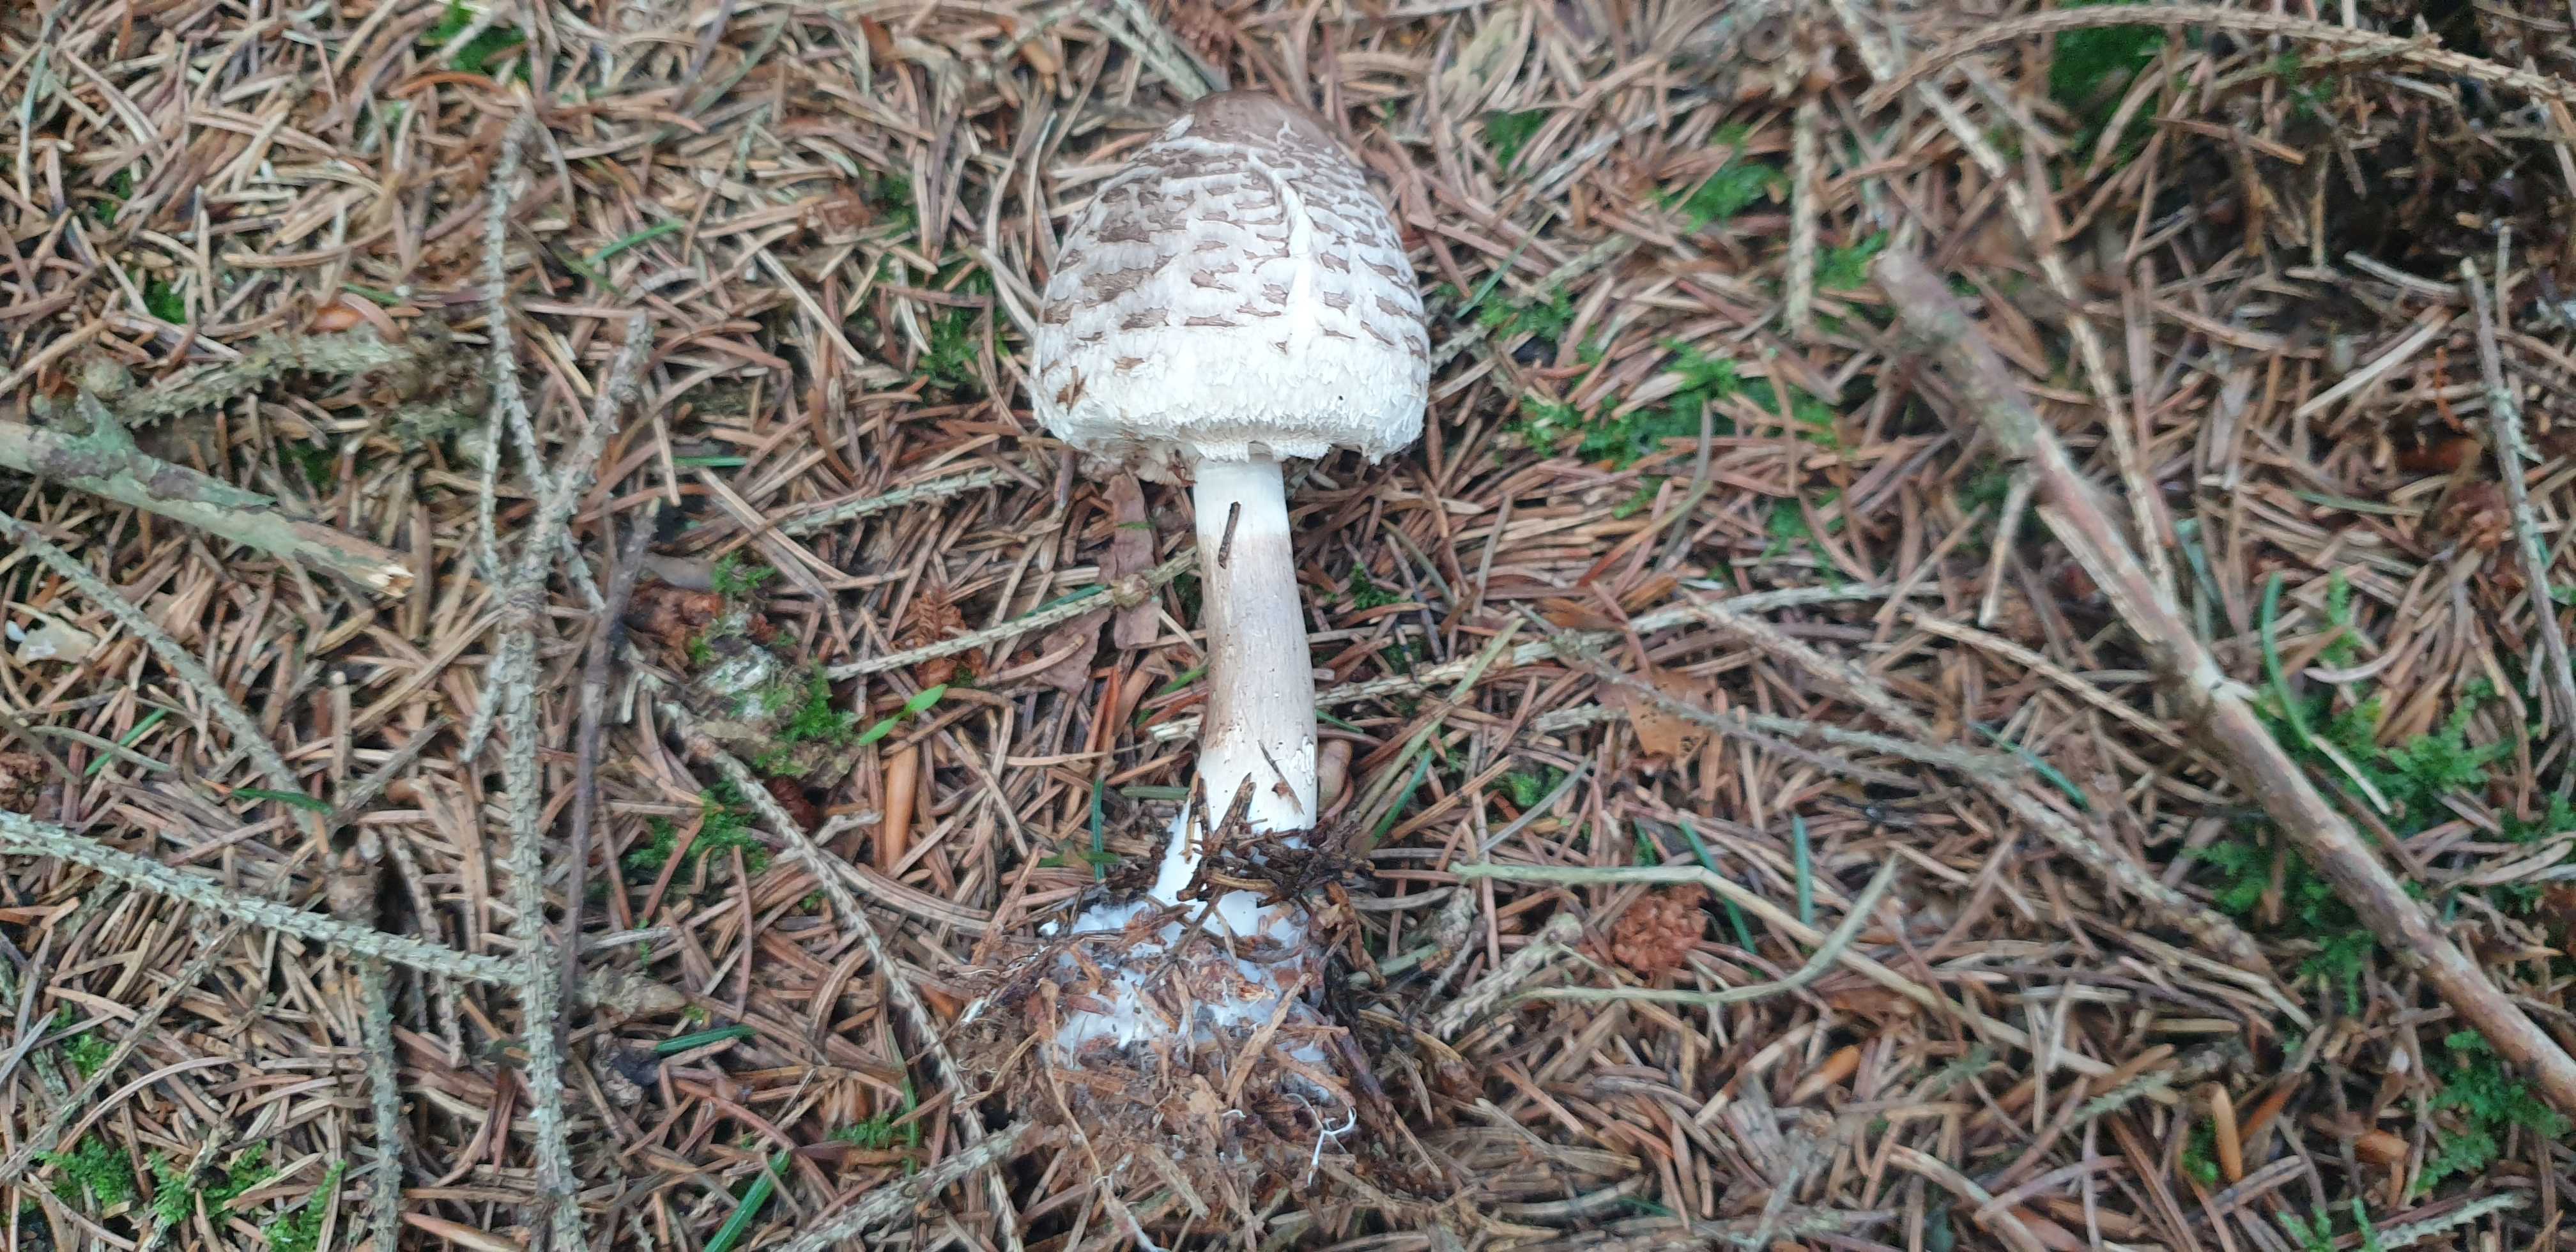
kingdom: Fungi
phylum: Basidiomycota
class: Agaricomycetes
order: Agaricales
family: Agaricaceae
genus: Chlorophyllum
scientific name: Chlorophyllum olivieri
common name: almindelig rabarberhat
